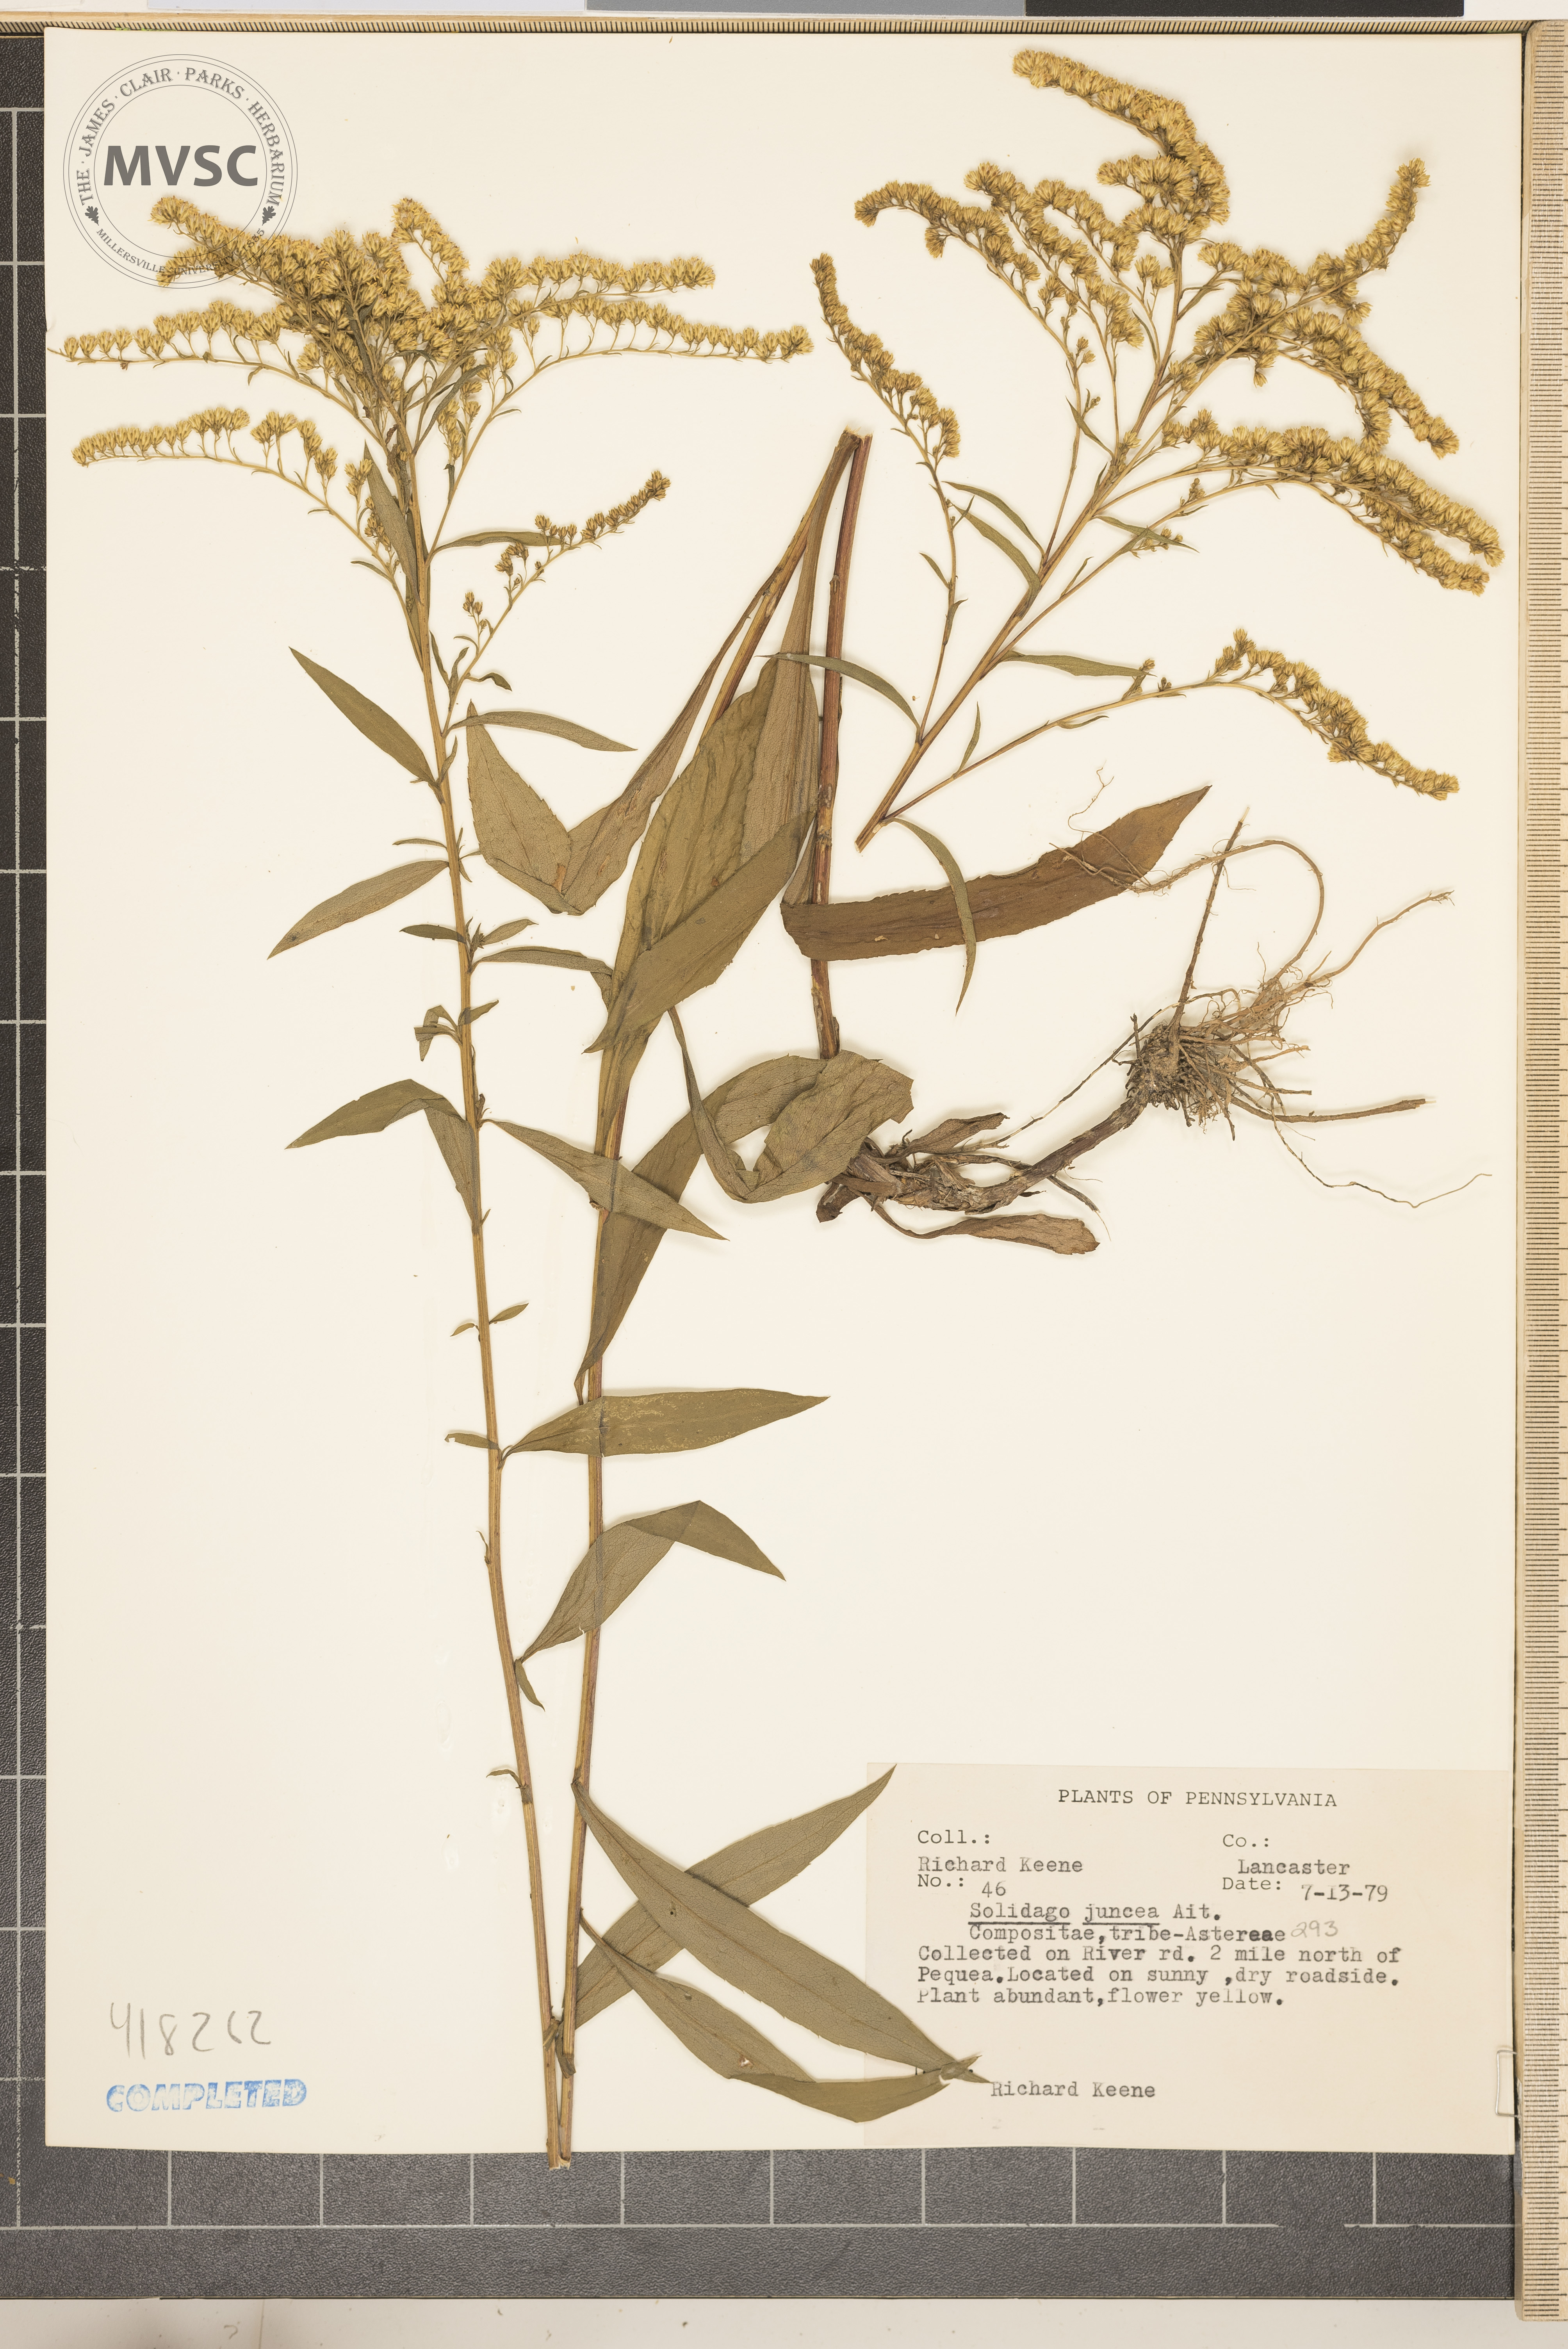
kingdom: Plantae
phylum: Tracheophyta
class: Magnoliopsida
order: Asterales
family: Asteraceae
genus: Solidago
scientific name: Solidago juncea
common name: Early goldenrod
